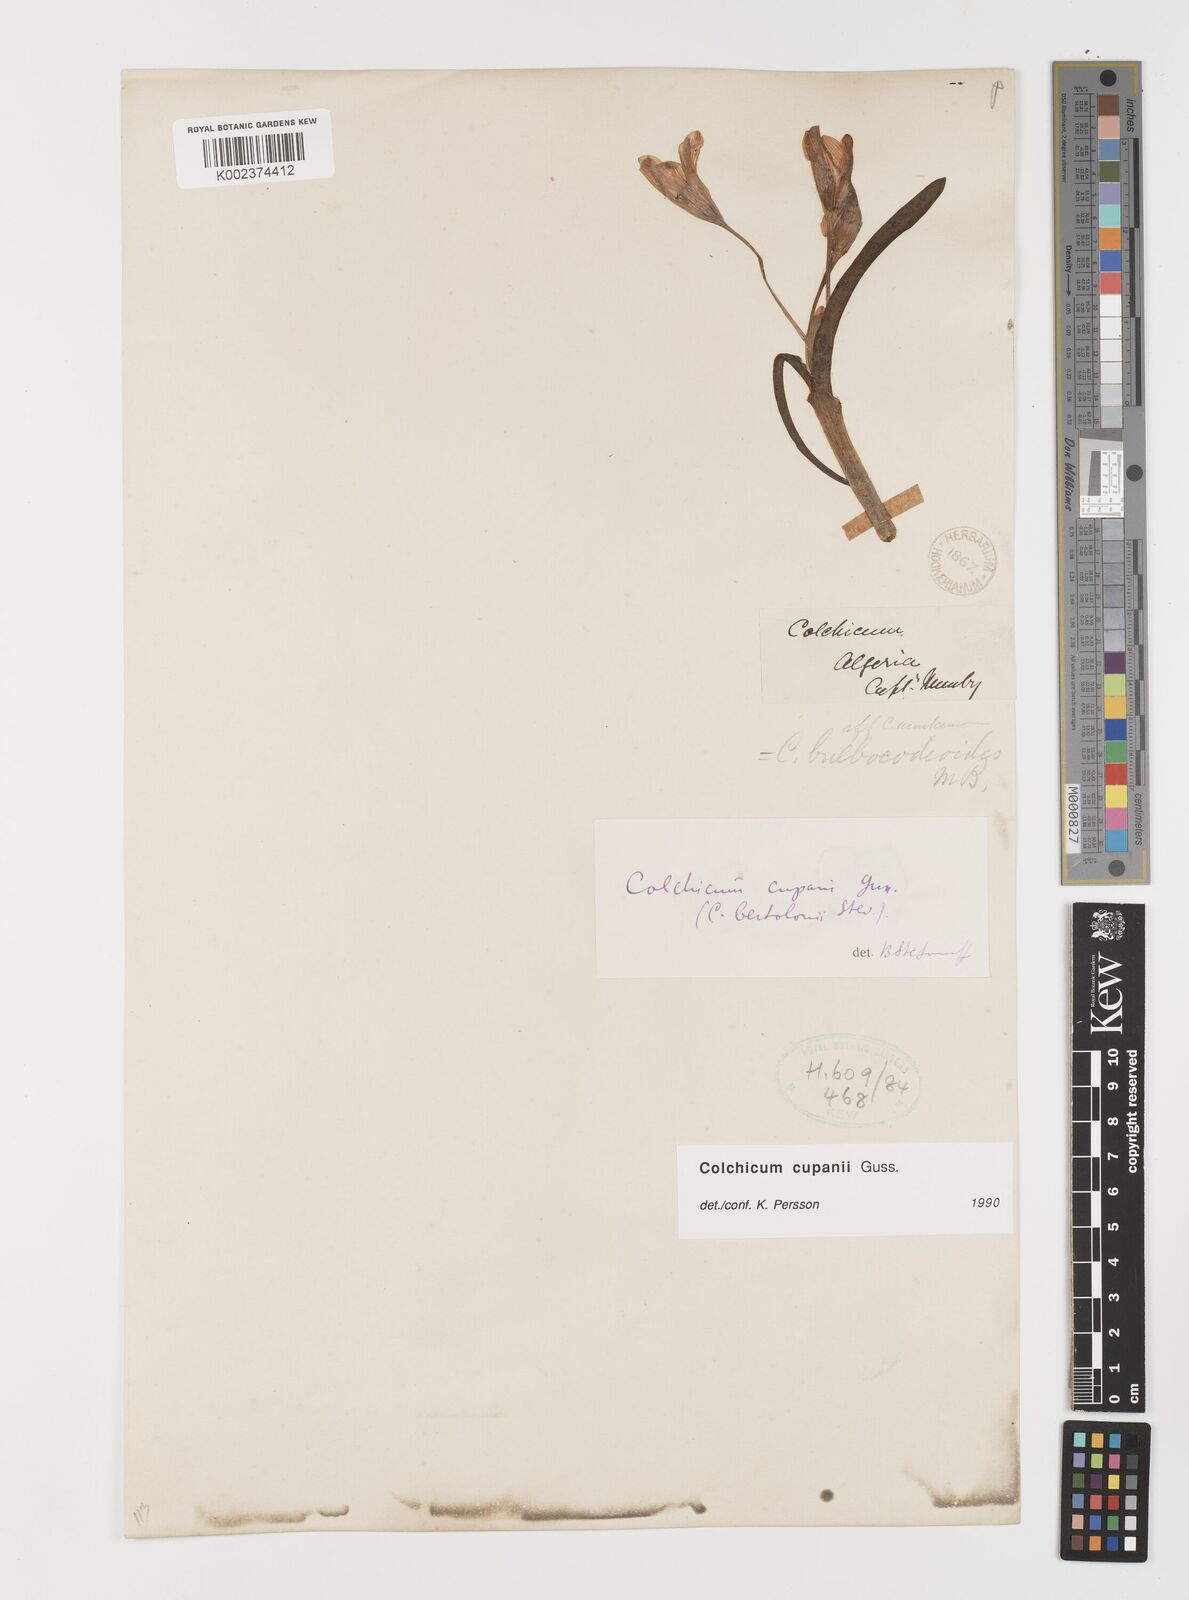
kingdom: Plantae
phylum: Tracheophyta
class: Liliopsida
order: Liliales
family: Colchicaceae
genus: Colchicum
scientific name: Colchicum cupanii
